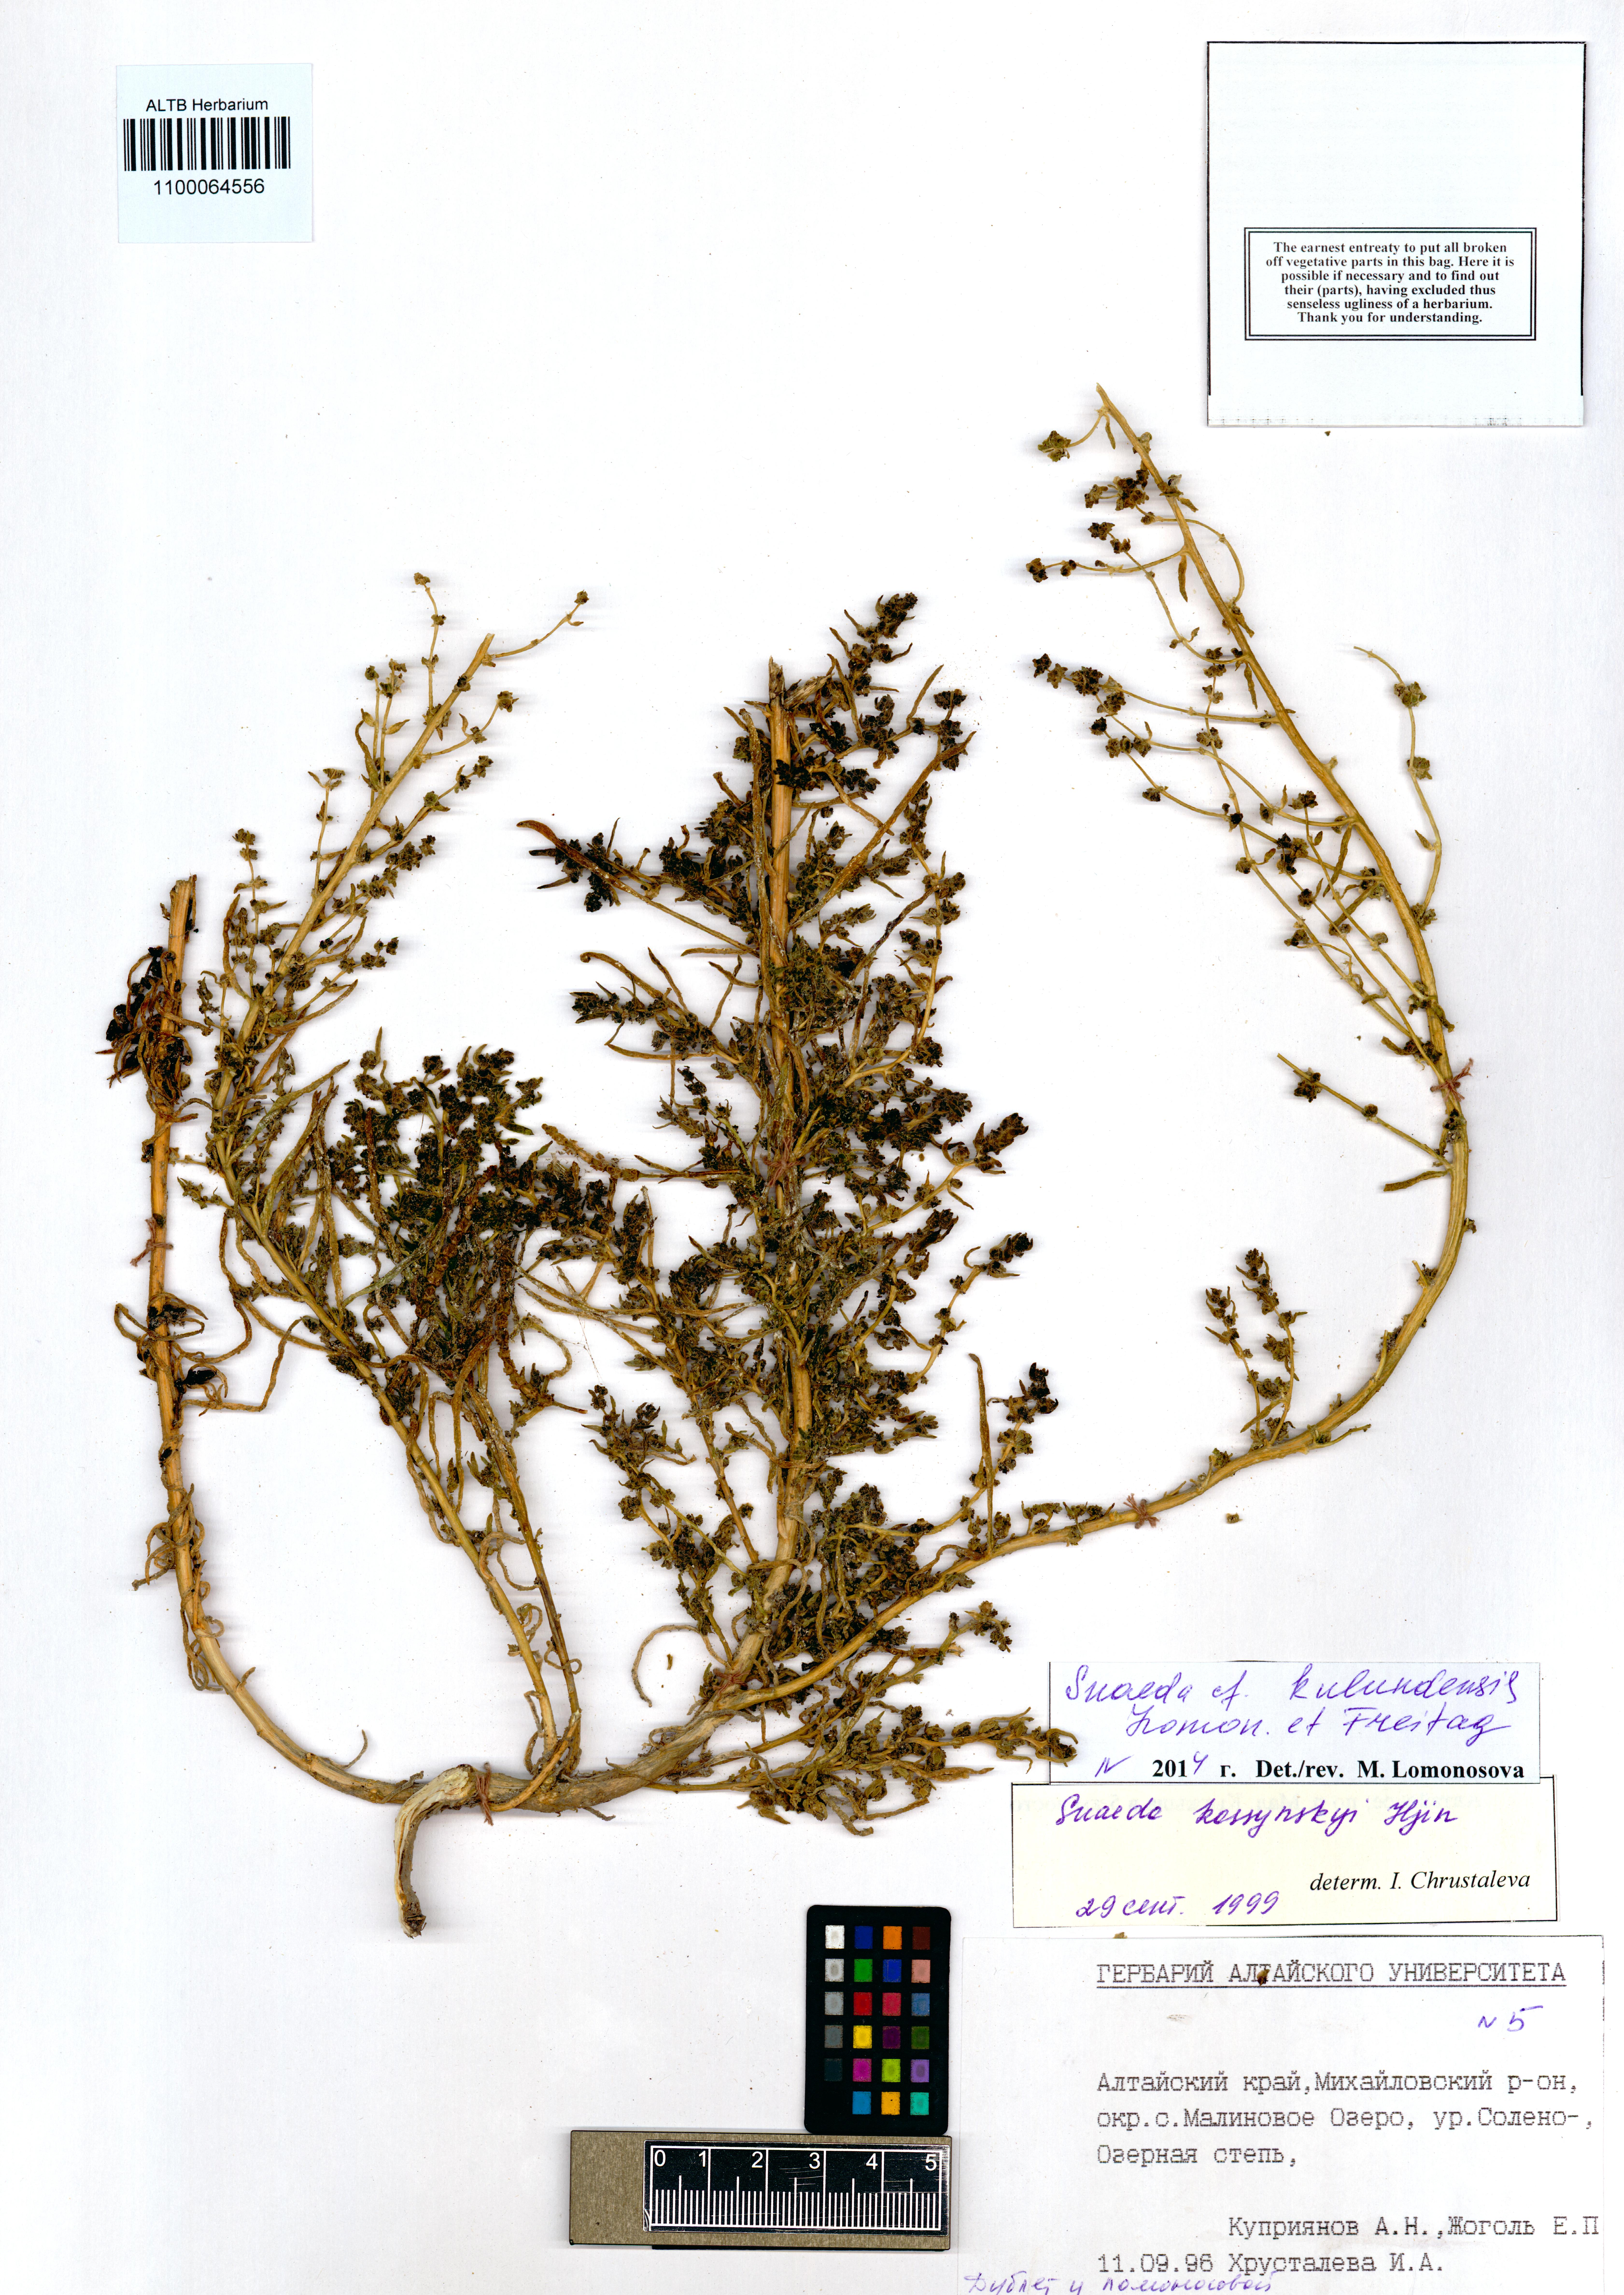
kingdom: Plantae
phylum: Tracheophyta
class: Magnoliopsida
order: Caryophyllales
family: Amaranthaceae
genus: Suaeda
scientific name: Suaeda kulundensis
